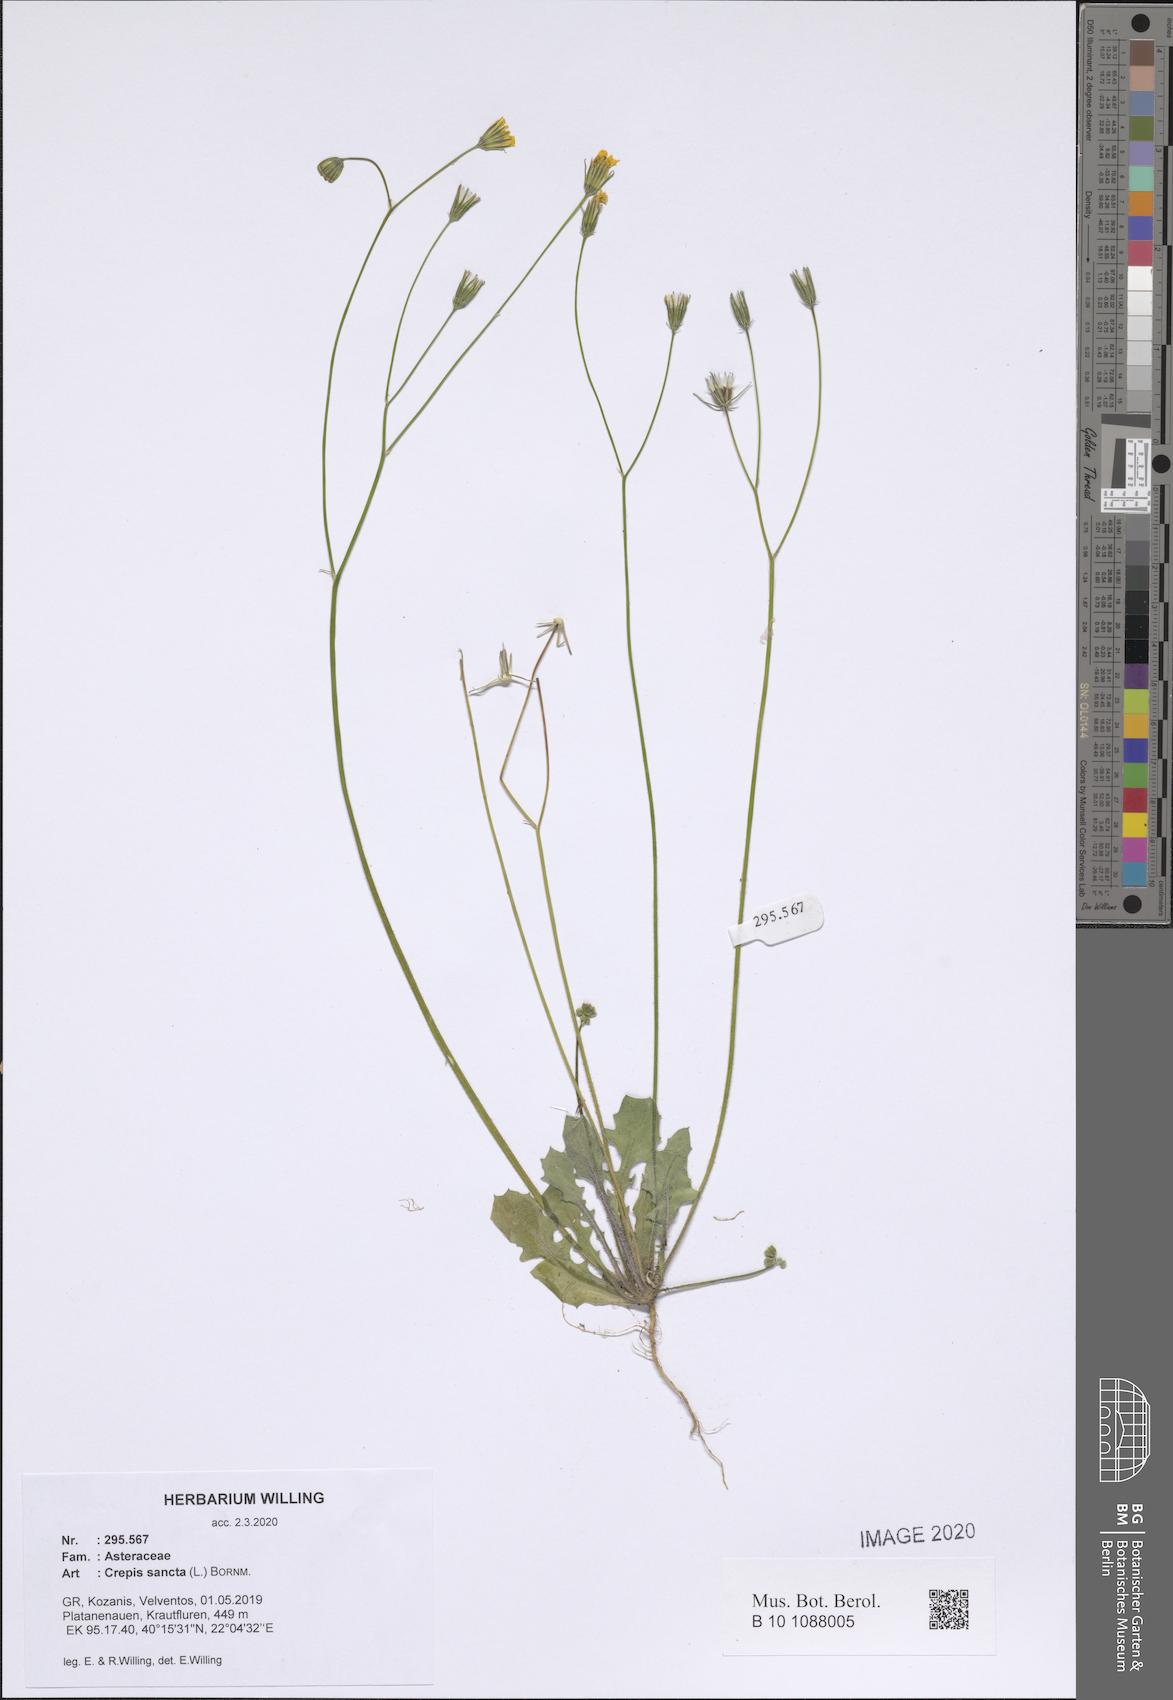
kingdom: Plantae
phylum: Tracheophyta
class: Magnoliopsida
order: Asterales
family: Asteraceae
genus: Crepis
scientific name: Crepis sancta
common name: Hawk's-beard
